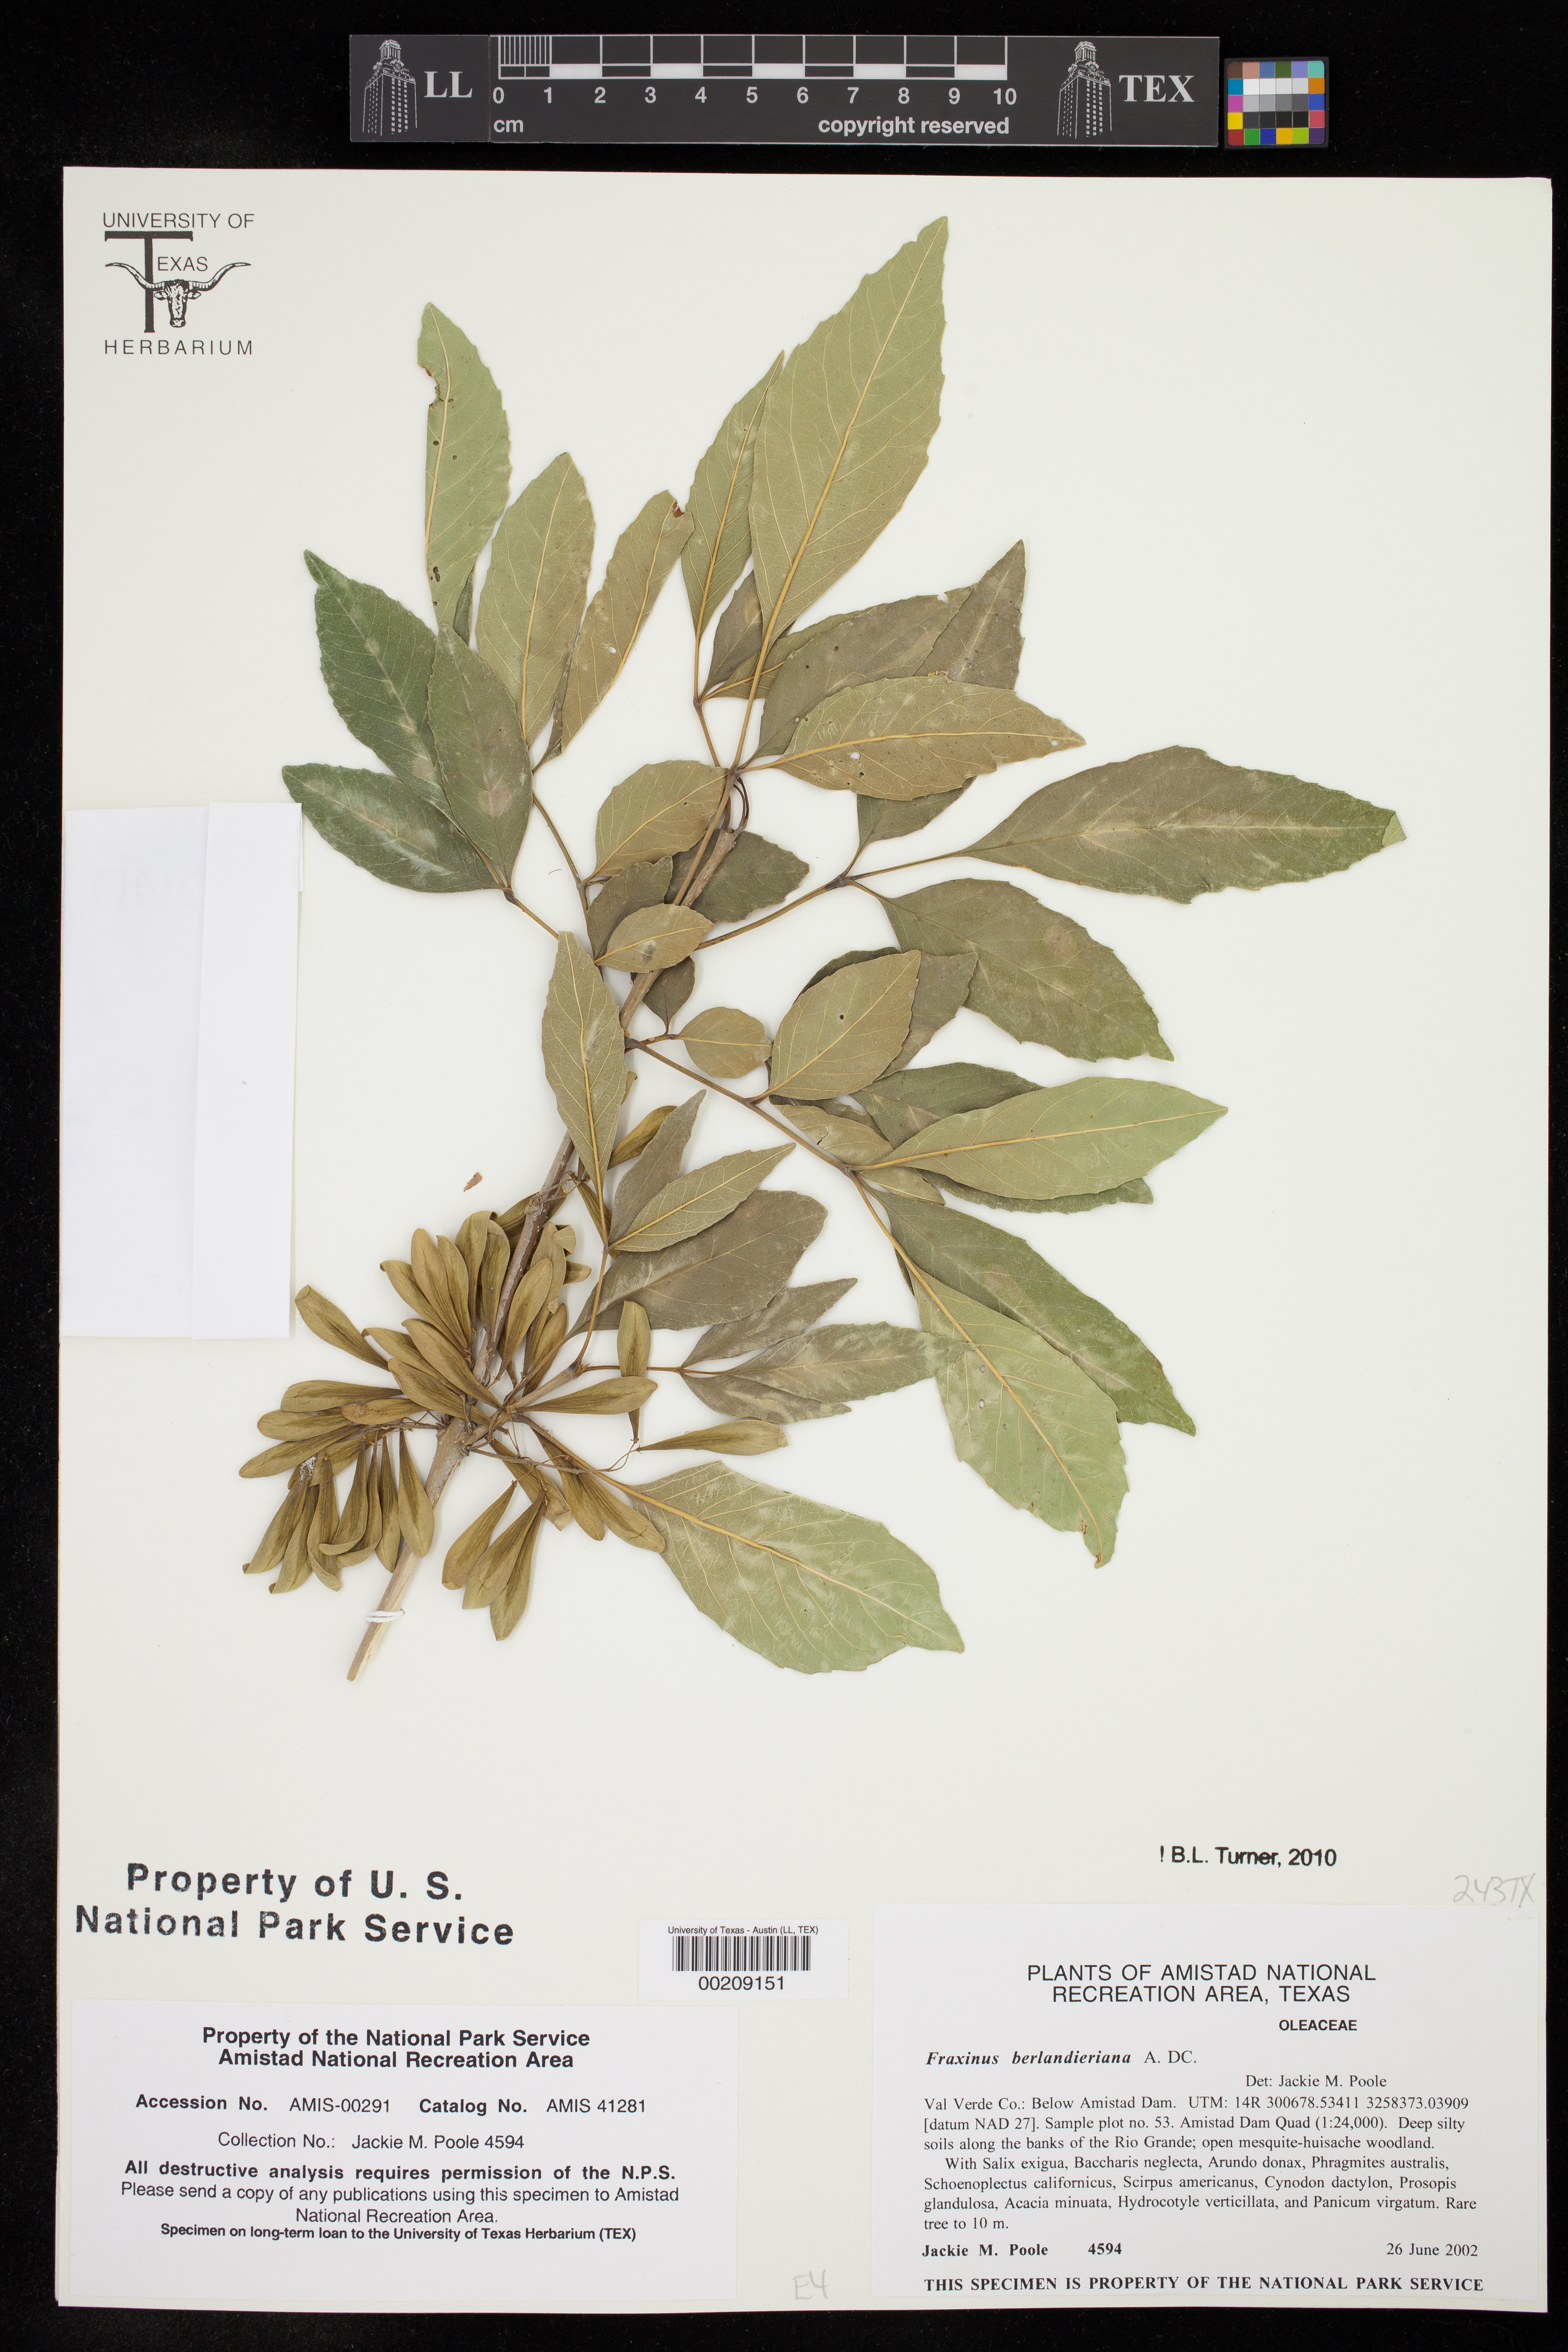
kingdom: Plantae
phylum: Tracheophyta
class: Magnoliopsida
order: Lamiales
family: Oleaceae
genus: Fraxinus
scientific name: Fraxinus berlandieriana
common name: Berlandier ash
